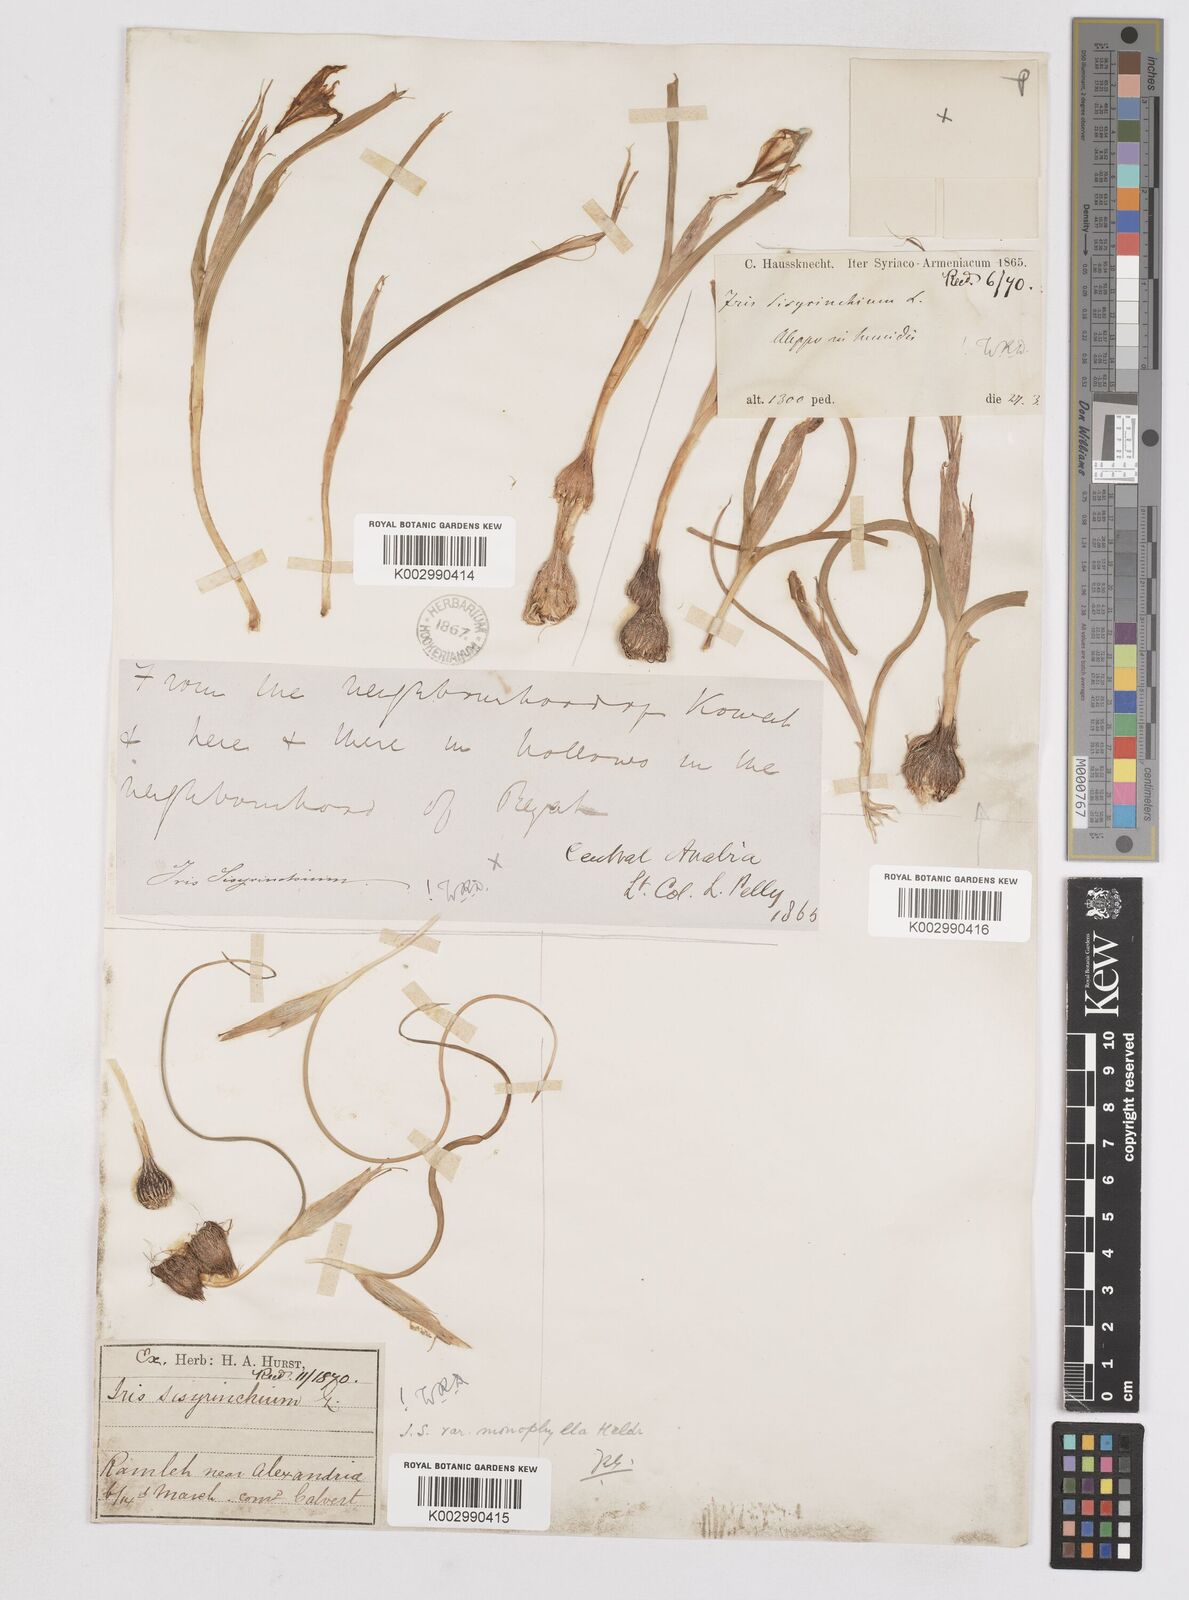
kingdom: Plantae
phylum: Tracheophyta
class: Liliopsida
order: Asparagales
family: Iridaceae
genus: Moraea
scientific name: Moraea
